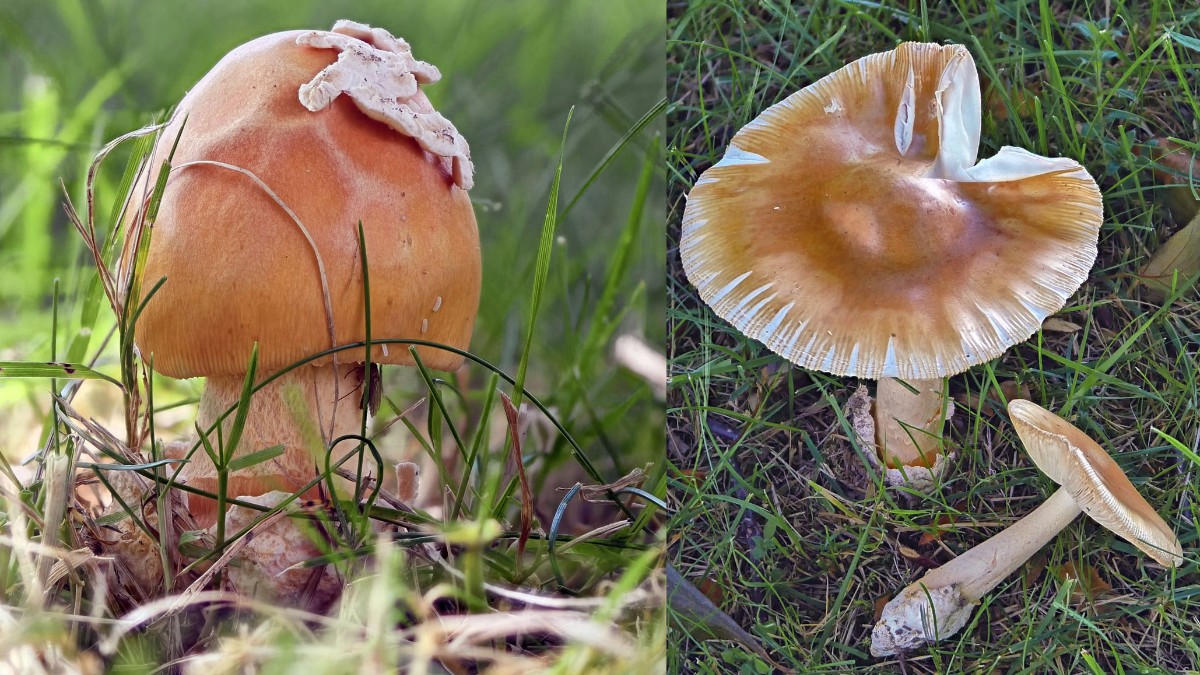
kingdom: Fungi
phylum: Basidiomycota
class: Agaricomycetes
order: Agaricales
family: Amanitaceae
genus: Amanita
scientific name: Amanita crocea
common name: gylden kam-fluesvamp
